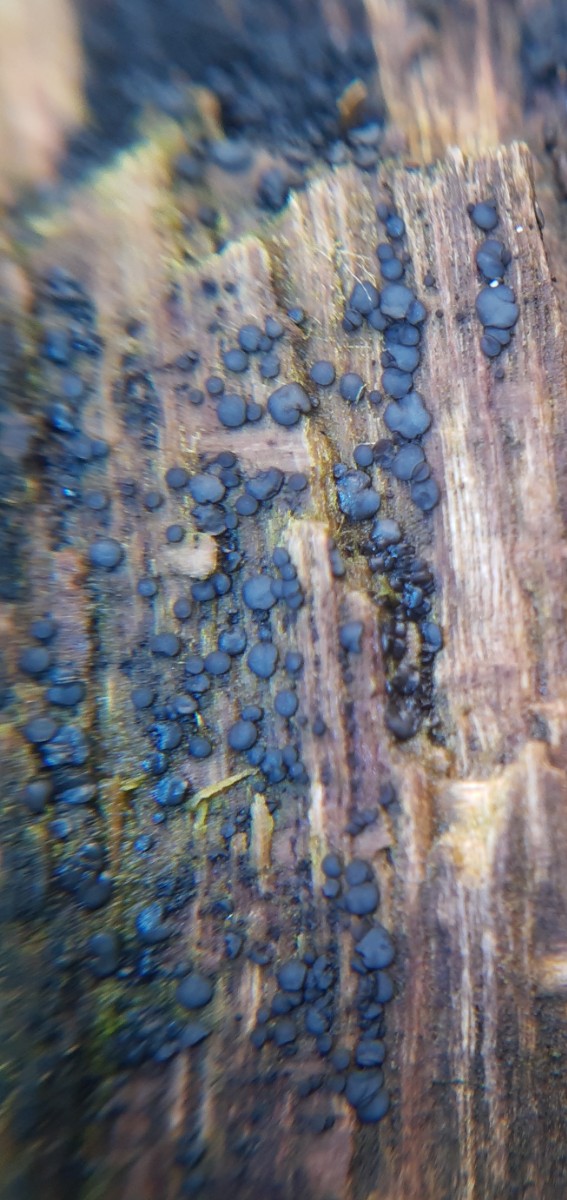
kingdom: Fungi
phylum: Ascomycota
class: Leotiomycetes
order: Helotiales
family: Mollisiaceae
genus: Mollisia
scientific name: Mollisia
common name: gråskive
